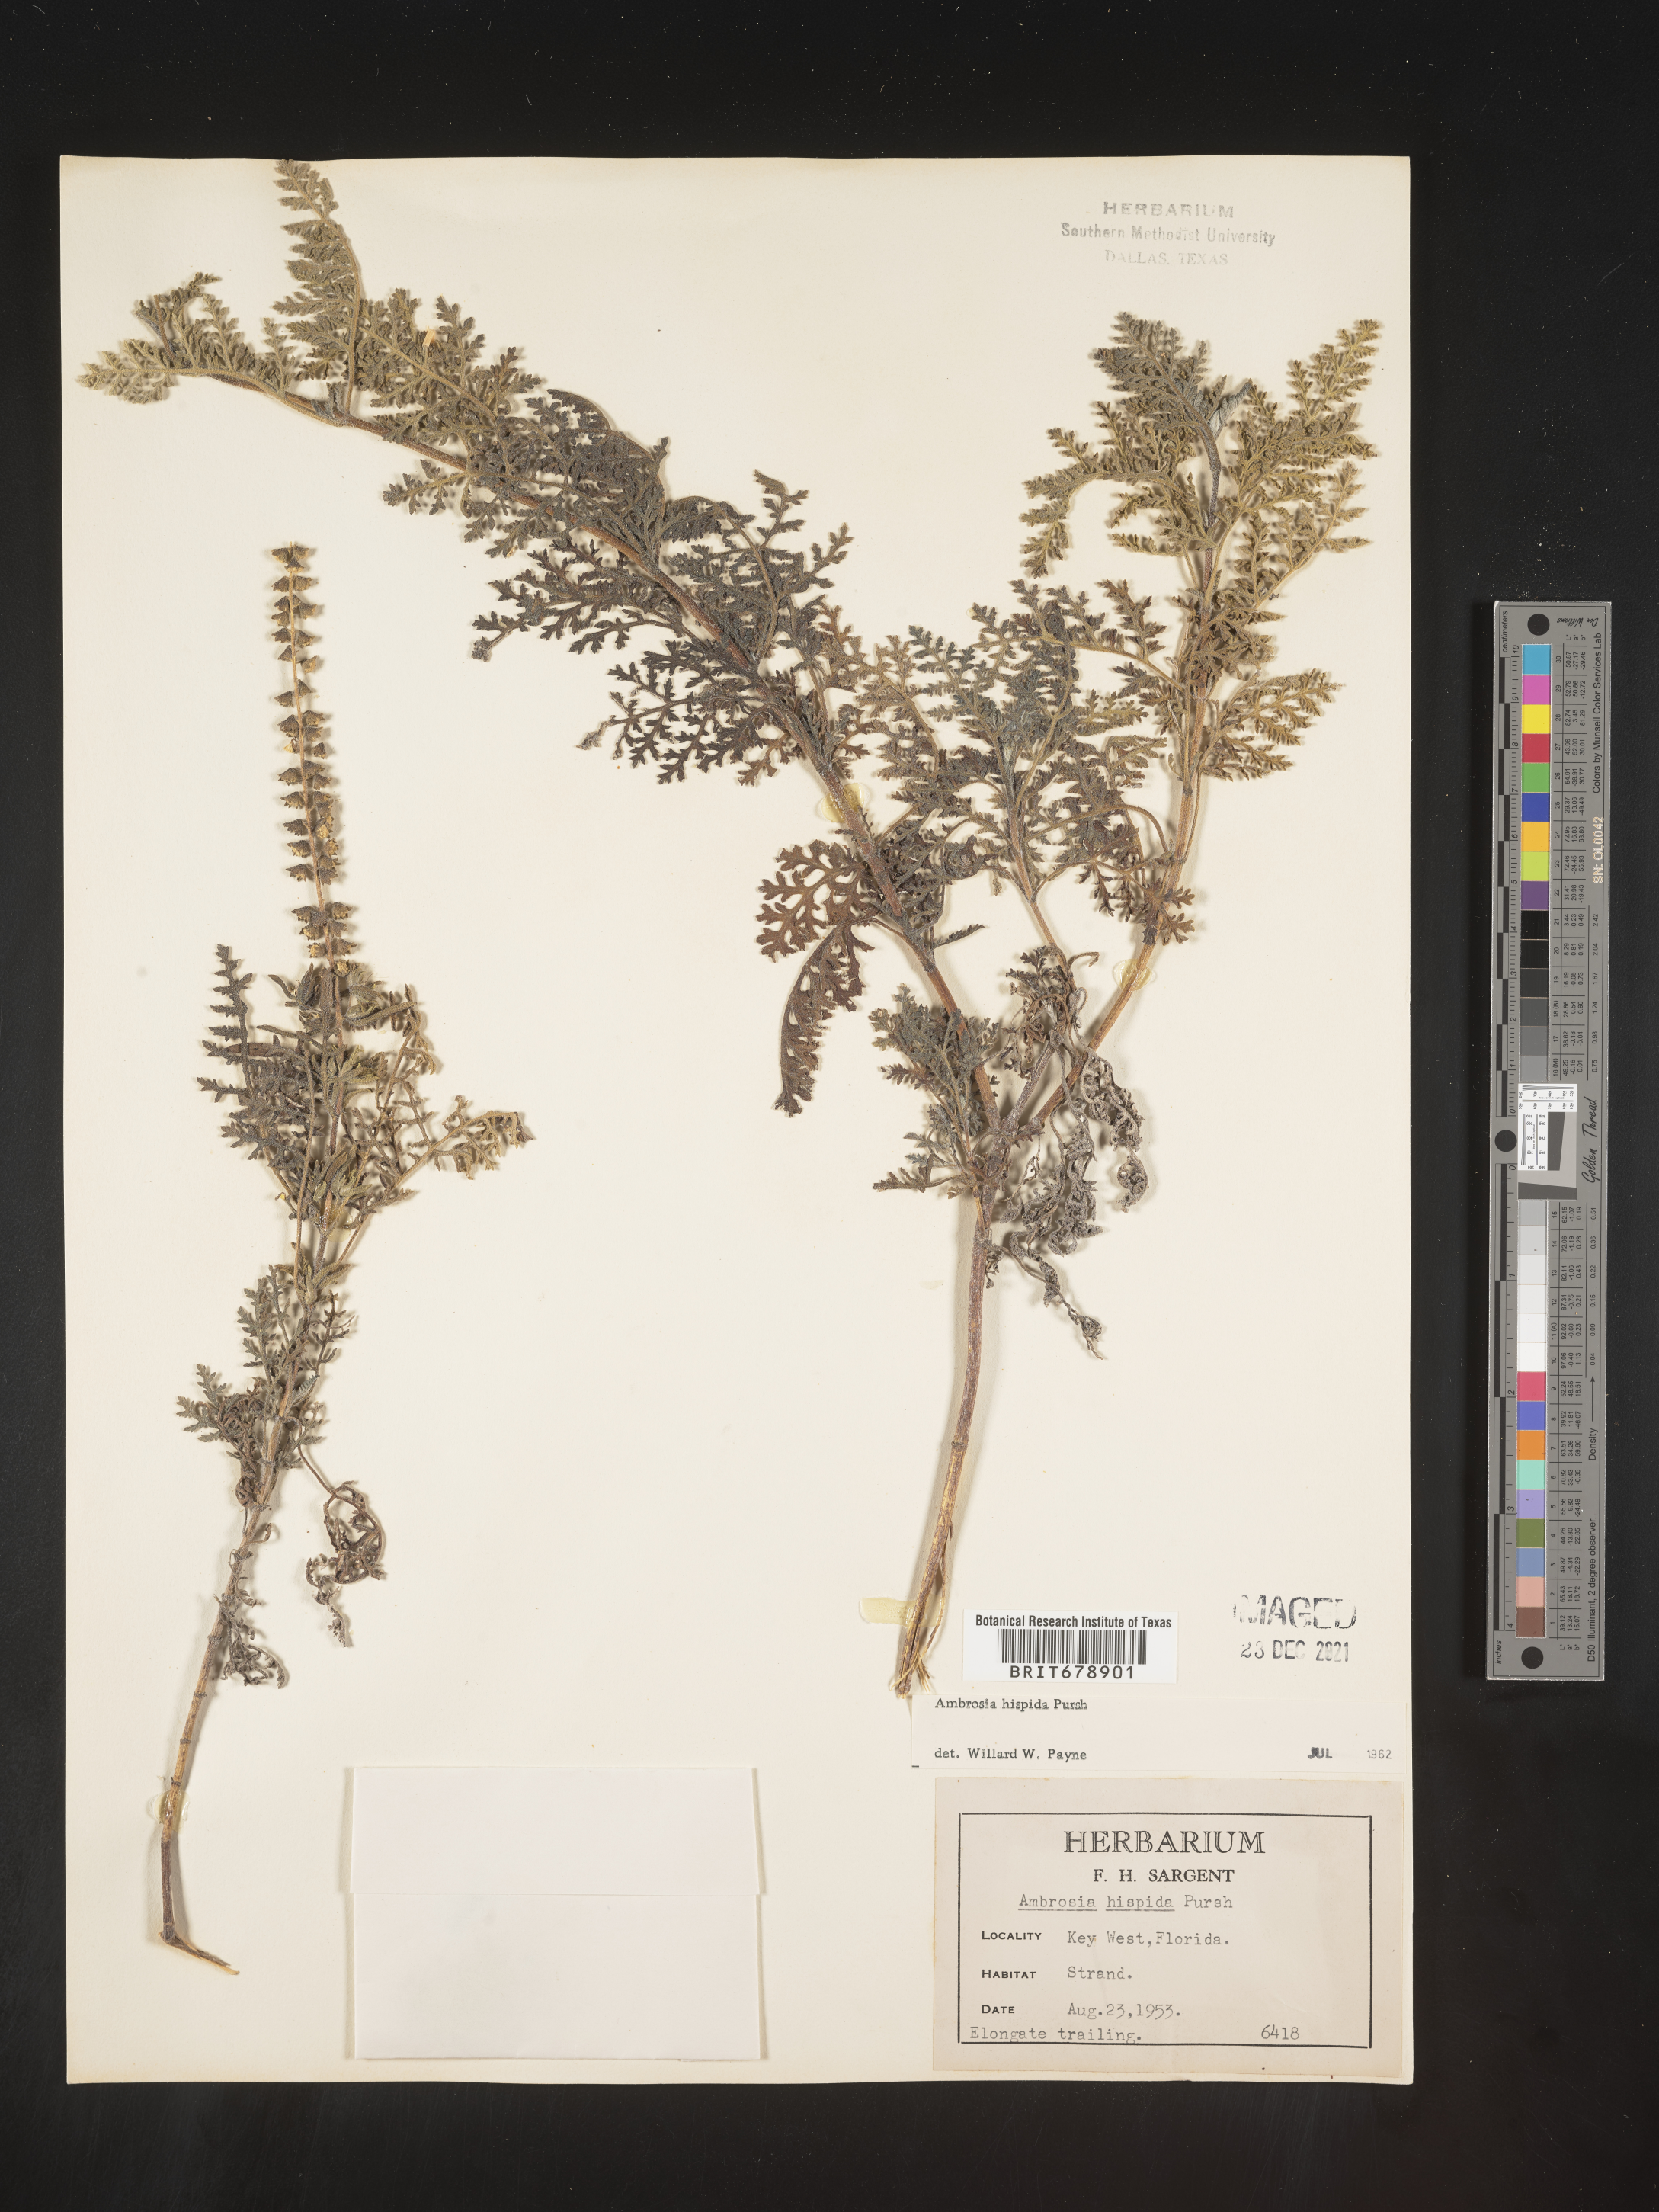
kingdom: Plantae
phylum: Tracheophyta
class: Magnoliopsida
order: Asterales
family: Asteraceae
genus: Ambrosia
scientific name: Ambrosia hispida
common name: Coastal ragweed
